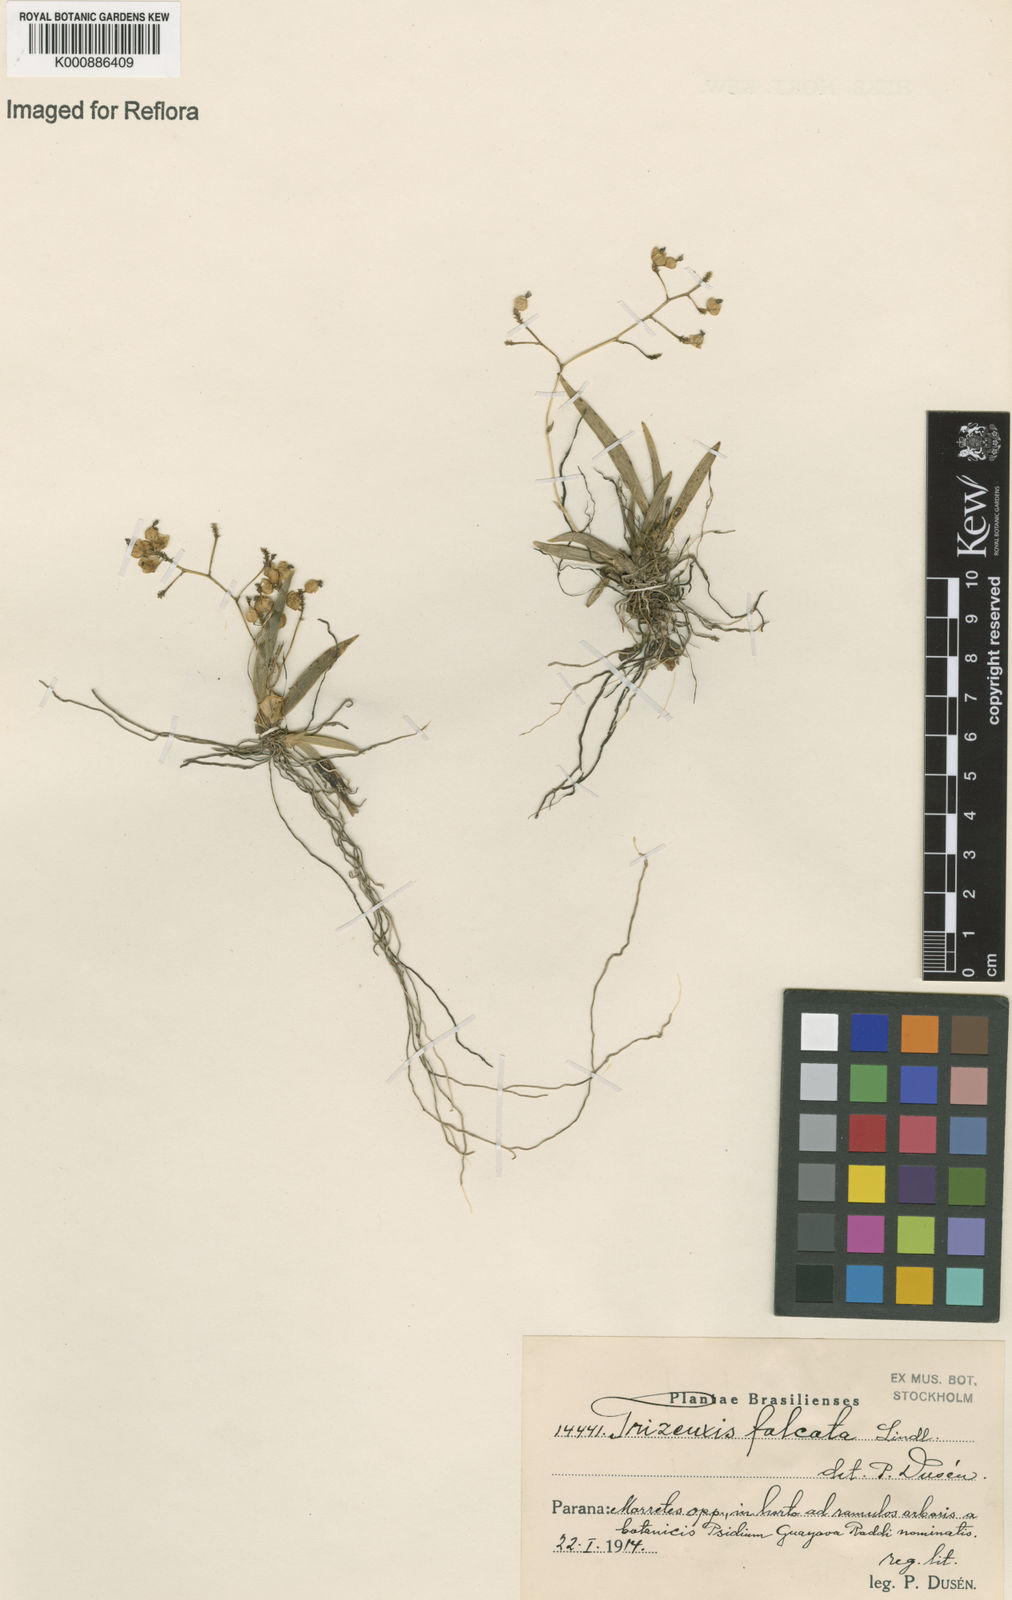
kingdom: Plantae
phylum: Tracheophyta
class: Liliopsida
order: Asparagales
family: Orchidaceae
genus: Trizeuxis
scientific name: Trizeuxis falcata
